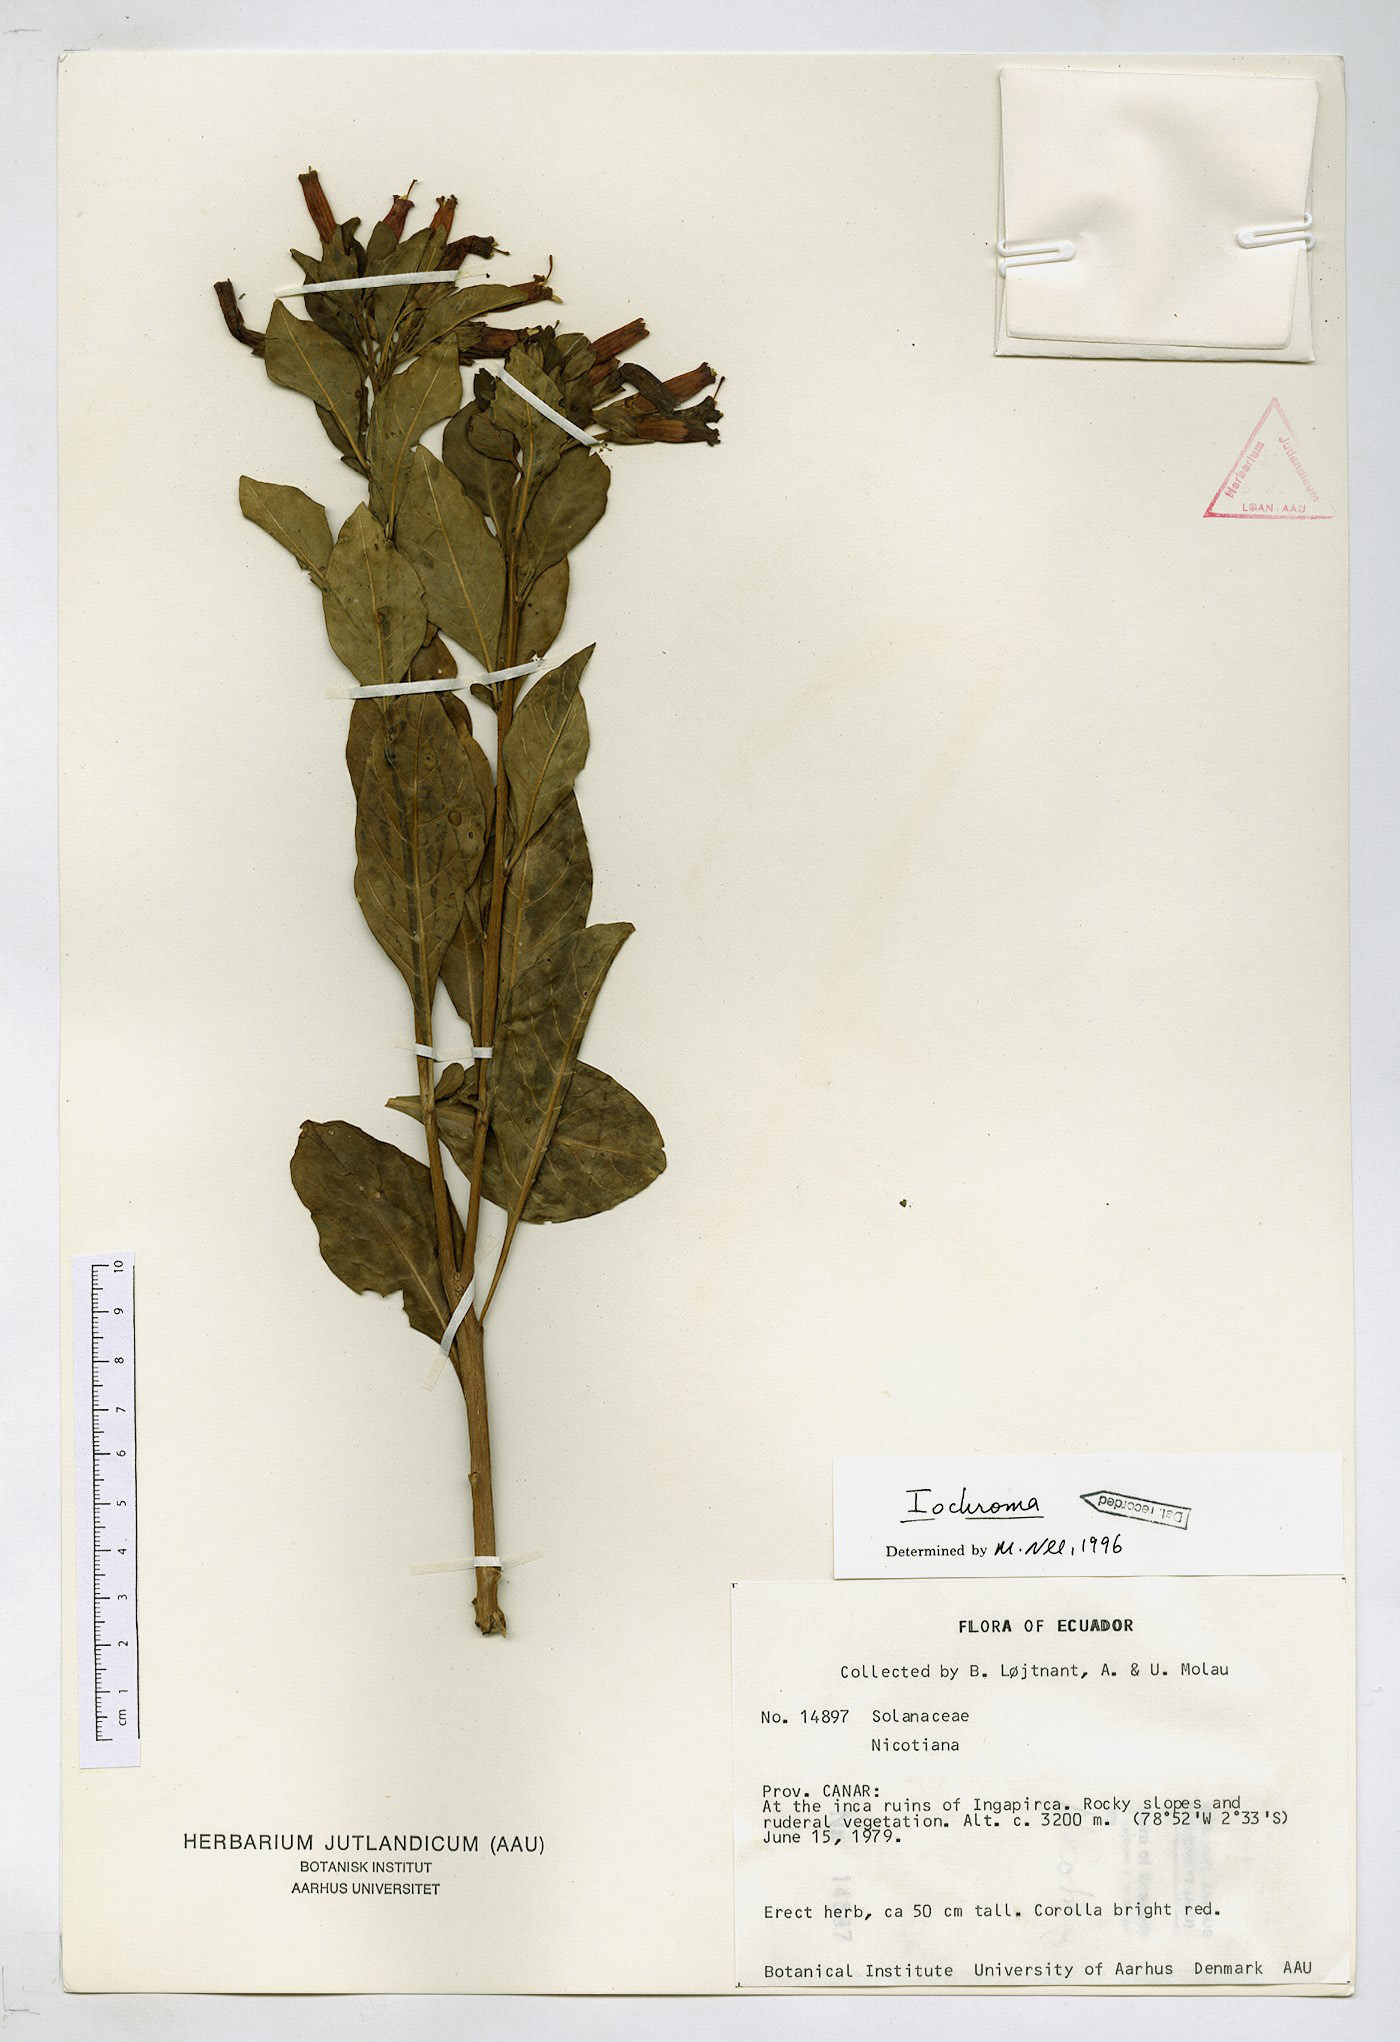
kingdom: Plantae
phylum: Tracheophyta
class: Magnoliopsida
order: Solanales
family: Solanaceae
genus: Iochroma
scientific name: Iochroma
